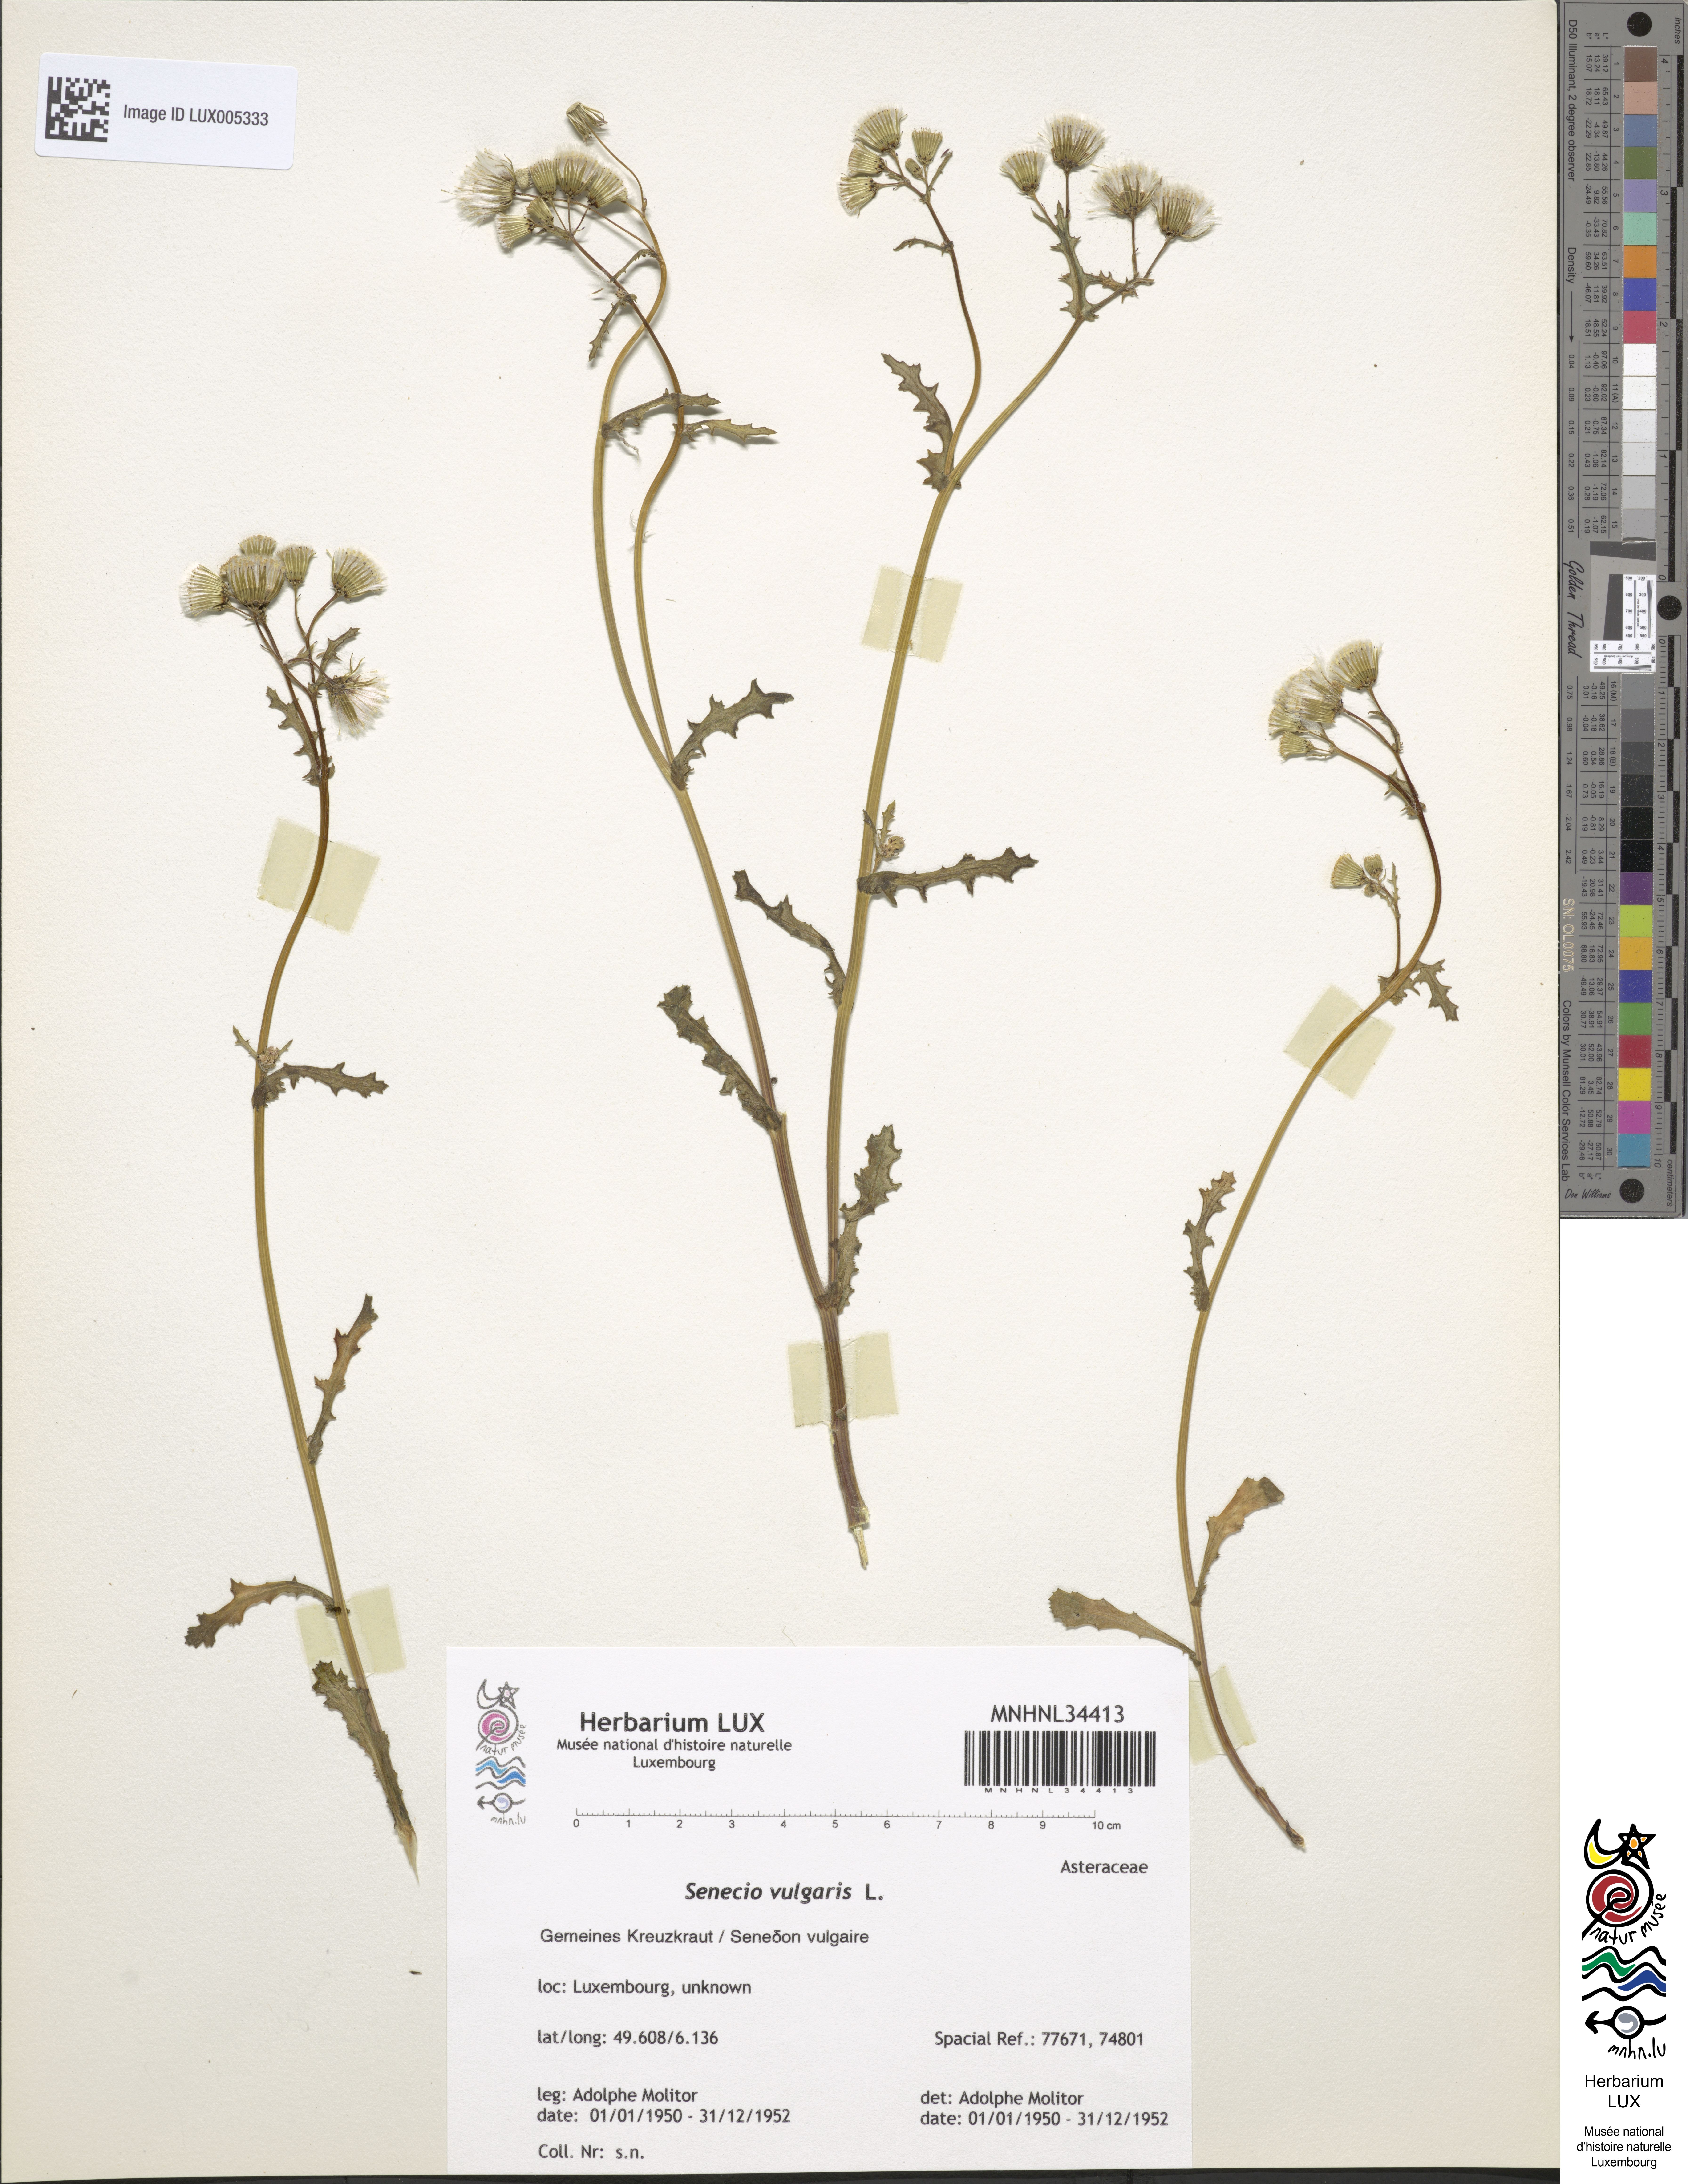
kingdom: Plantae
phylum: Tracheophyta
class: Magnoliopsida
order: Asterales
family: Asteraceae
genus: Senecio
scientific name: Senecio vulgaris
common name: Old-man-in-the-spring
